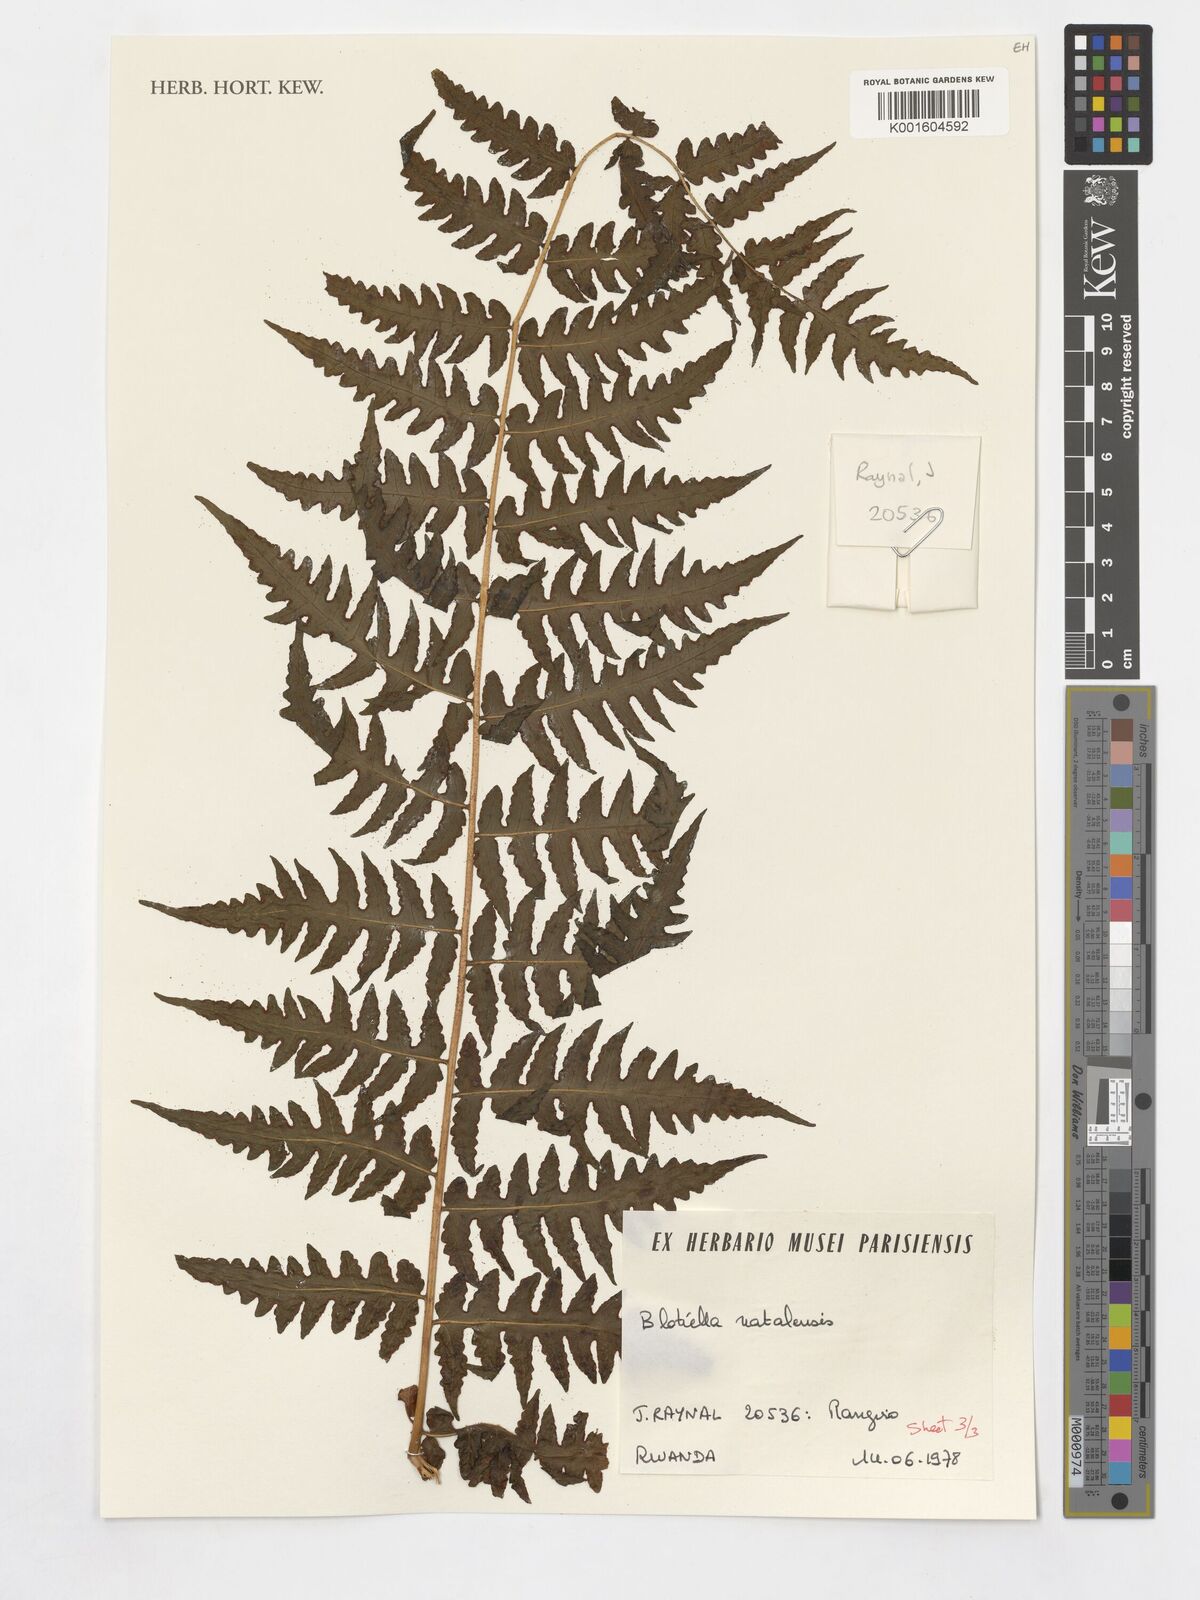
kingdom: Plantae
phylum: Tracheophyta
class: Polypodiopsida
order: Polypodiales
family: Dennstaedtiaceae
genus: Blotiella
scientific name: Blotiella natalensis
